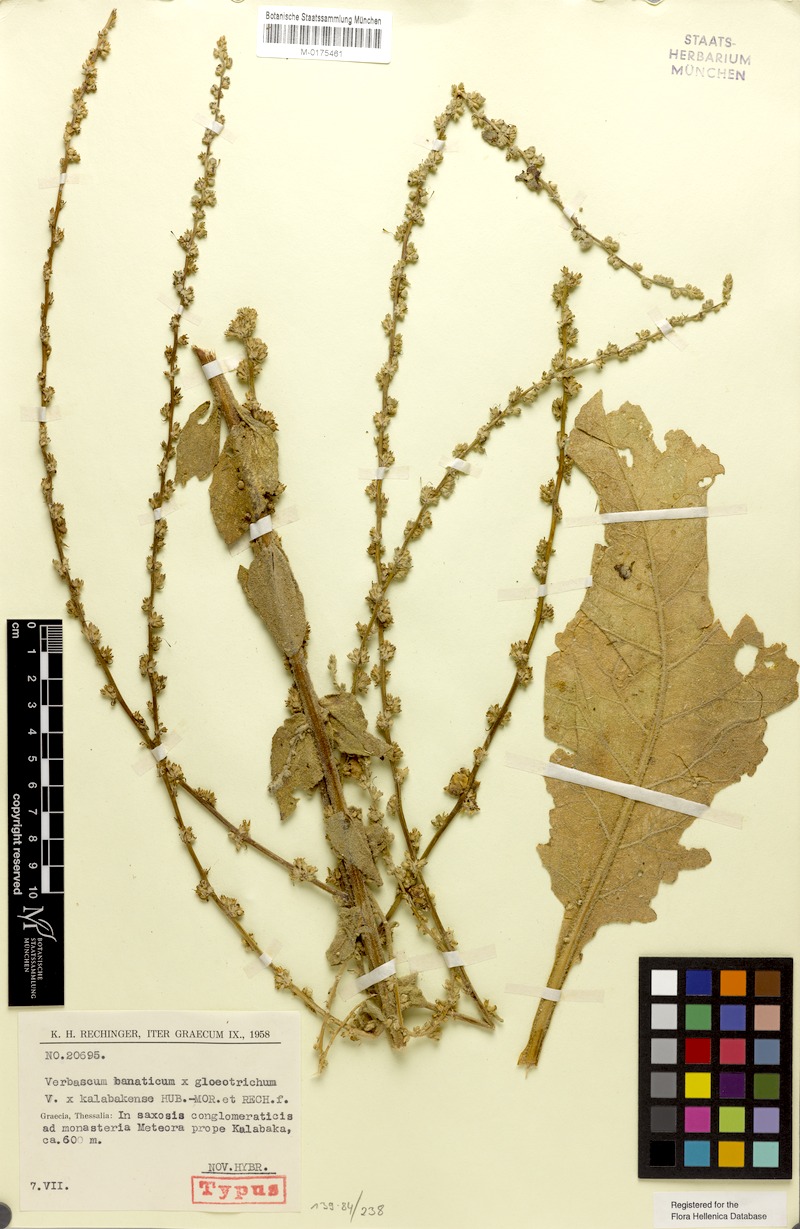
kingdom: Plantae
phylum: Tracheophyta
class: Magnoliopsida
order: Lamiales
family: Scrophulariaceae
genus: Verbascum
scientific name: Verbascum kalabakense
